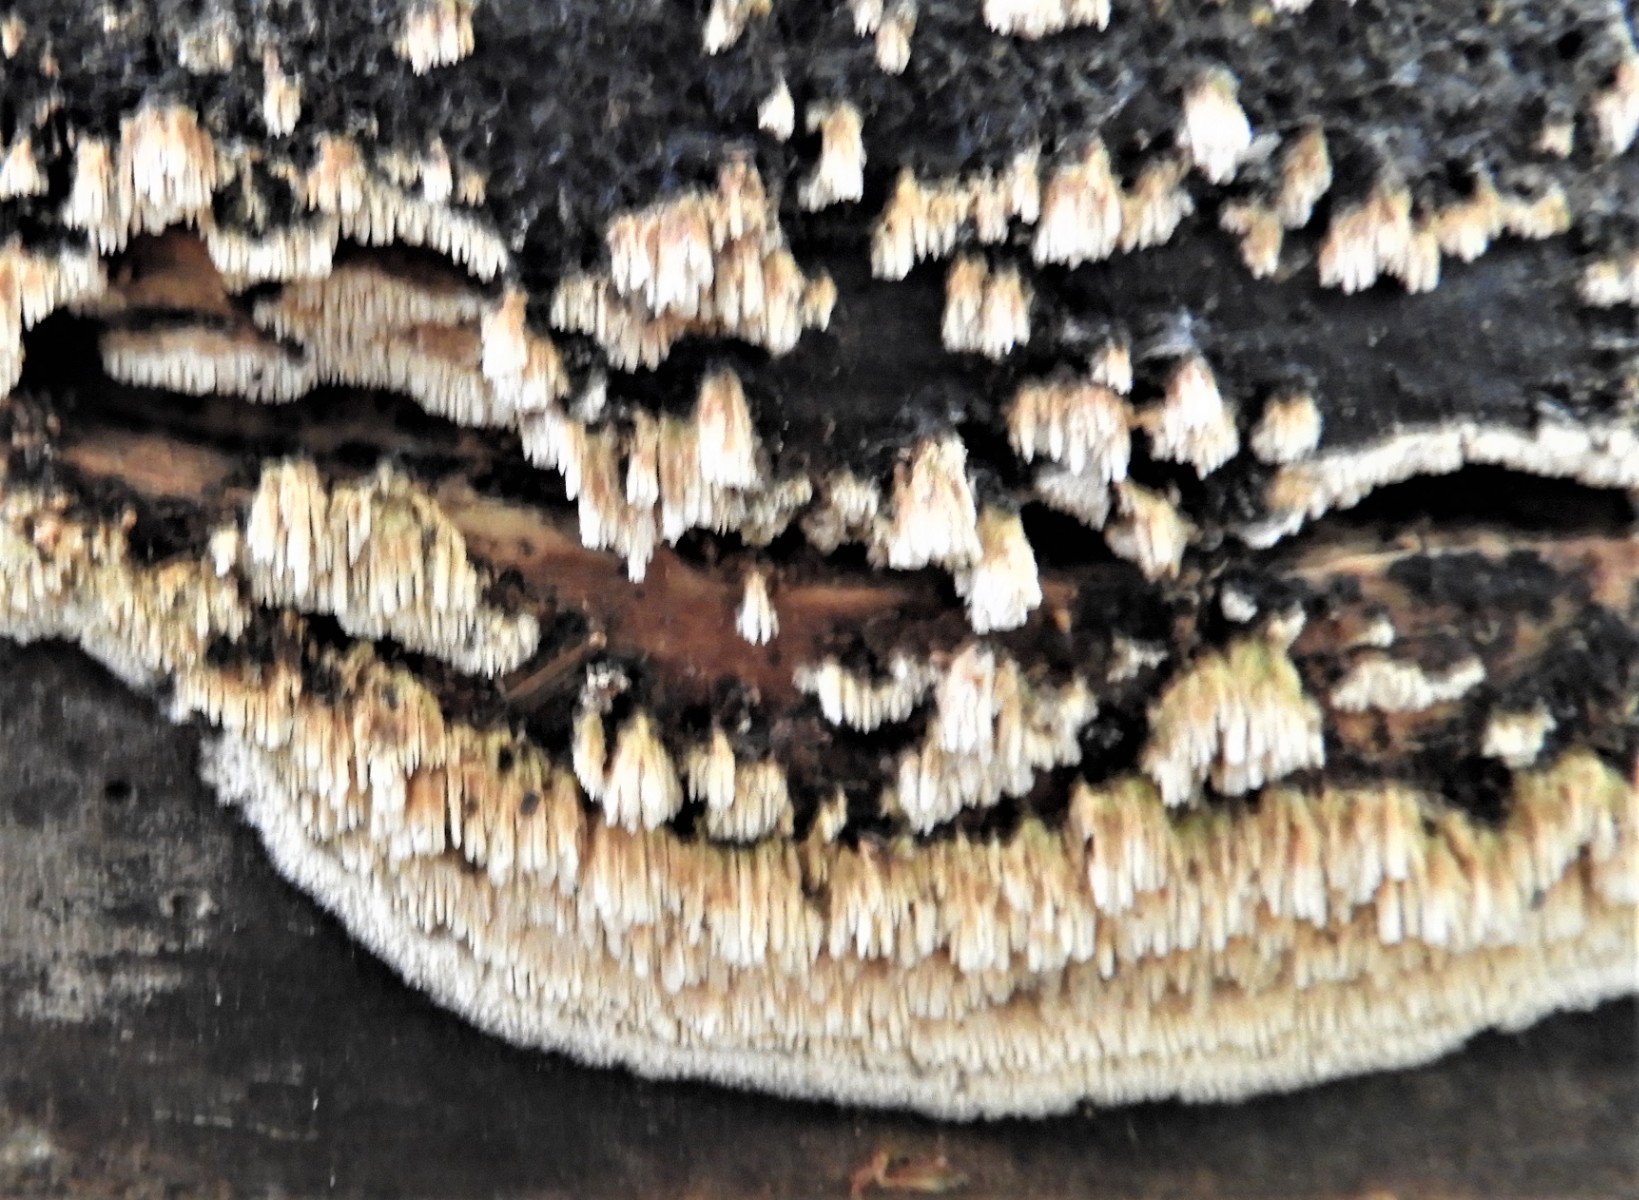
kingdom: Fungi
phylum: Basidiomycota
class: Agaricomycetes
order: Hymenochaetales
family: Schizoporaceae
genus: Schizopora
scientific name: Schizopora paradoxa
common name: hvid tandsvamp
